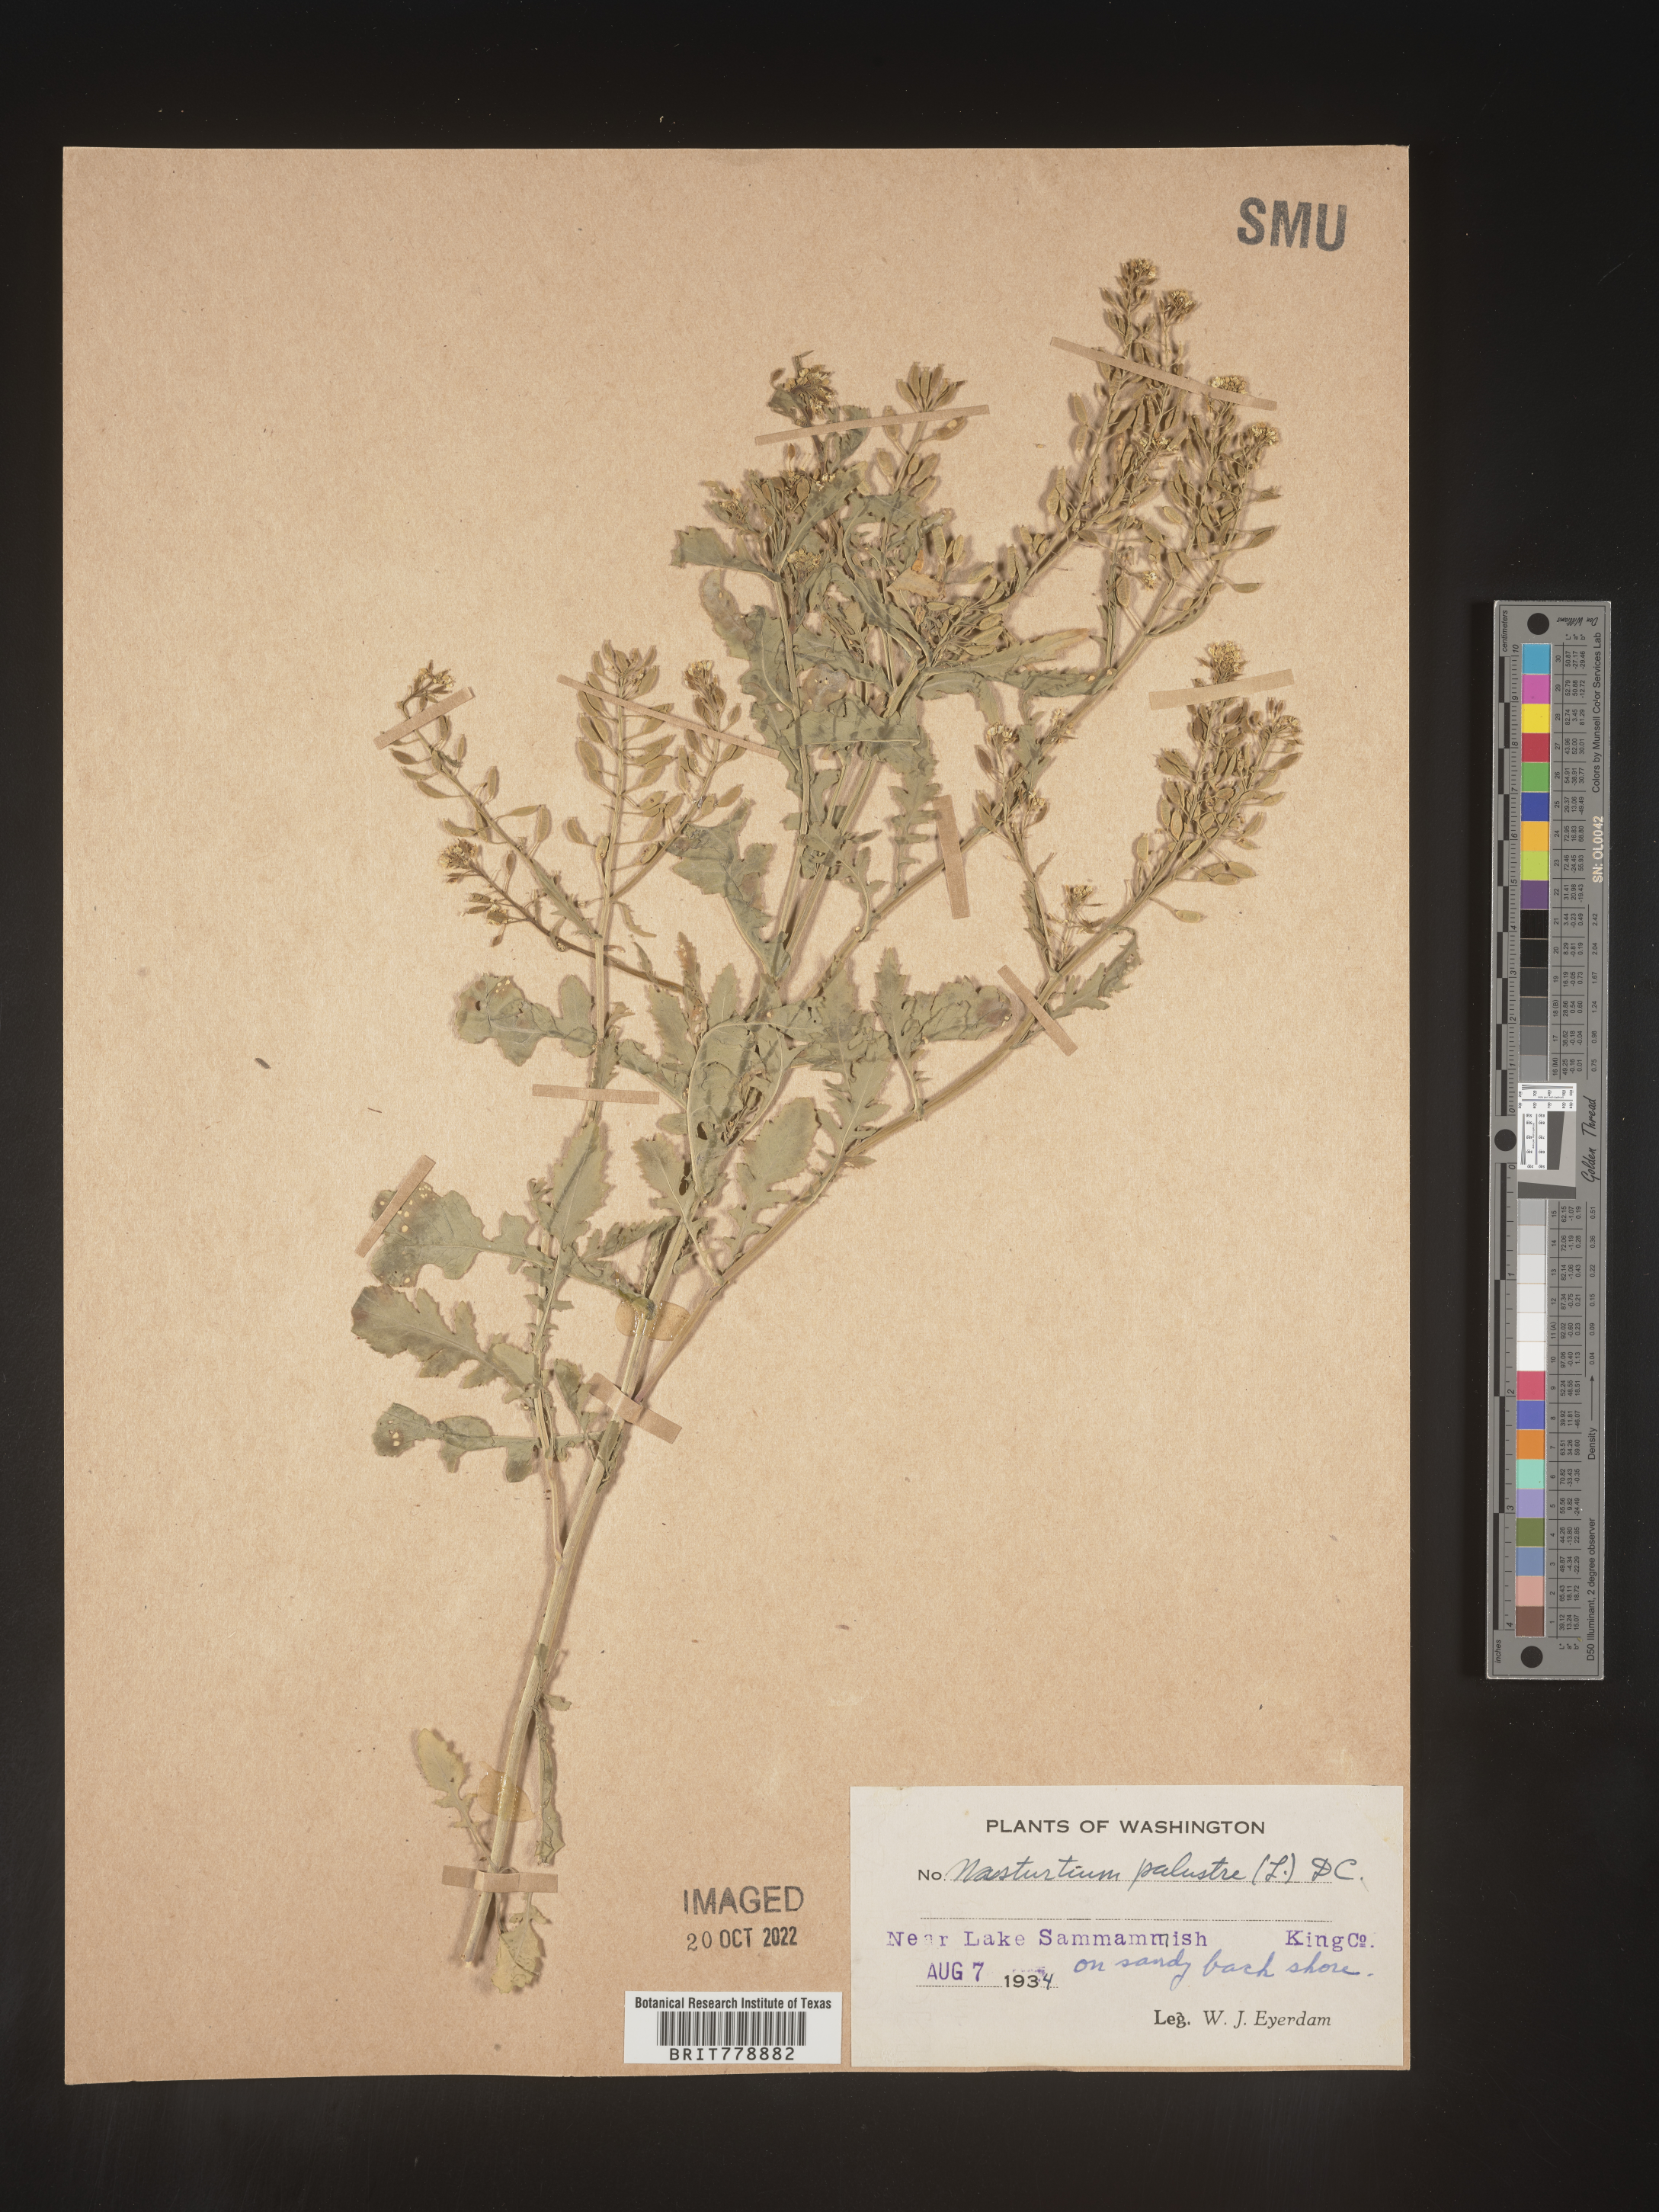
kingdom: Plantae
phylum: Tracheophyta
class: Magnoliopsida
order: Brassicales
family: Brassicaceae
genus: Rorippa
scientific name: Rorippa palustris
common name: Marsh yellow-cress
